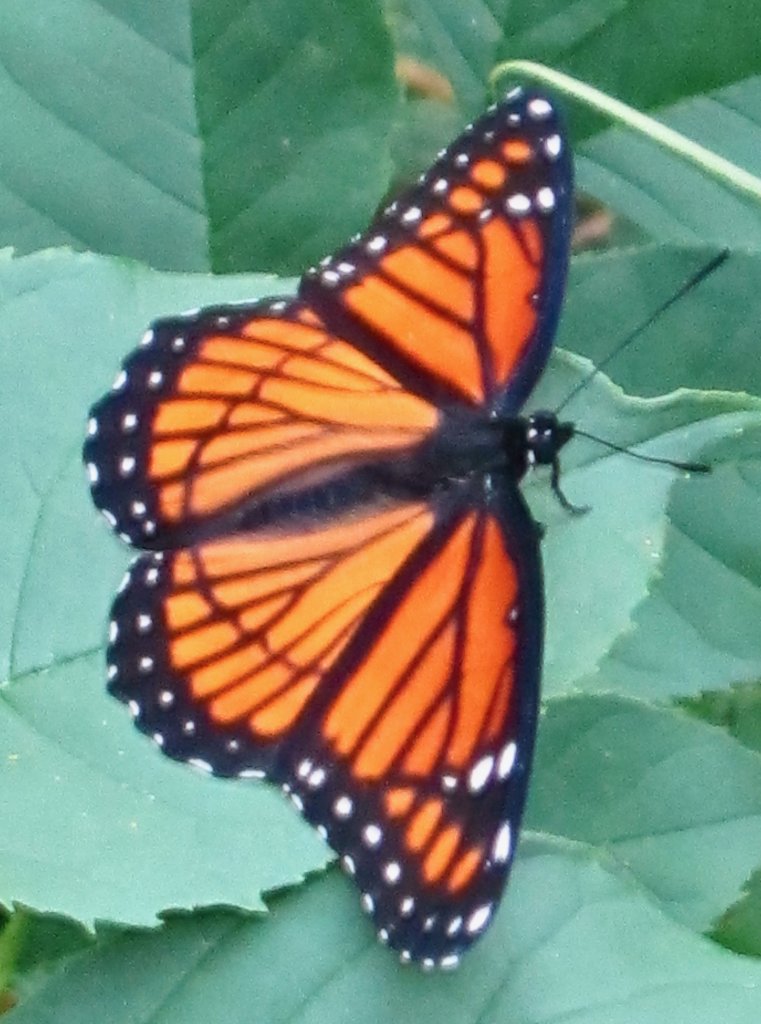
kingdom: Animalia
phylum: Arthropoda
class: Insecta
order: Lepidoptera
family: Nymphalidae
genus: Limenitis
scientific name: Limenitis archippus
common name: Viceroy
